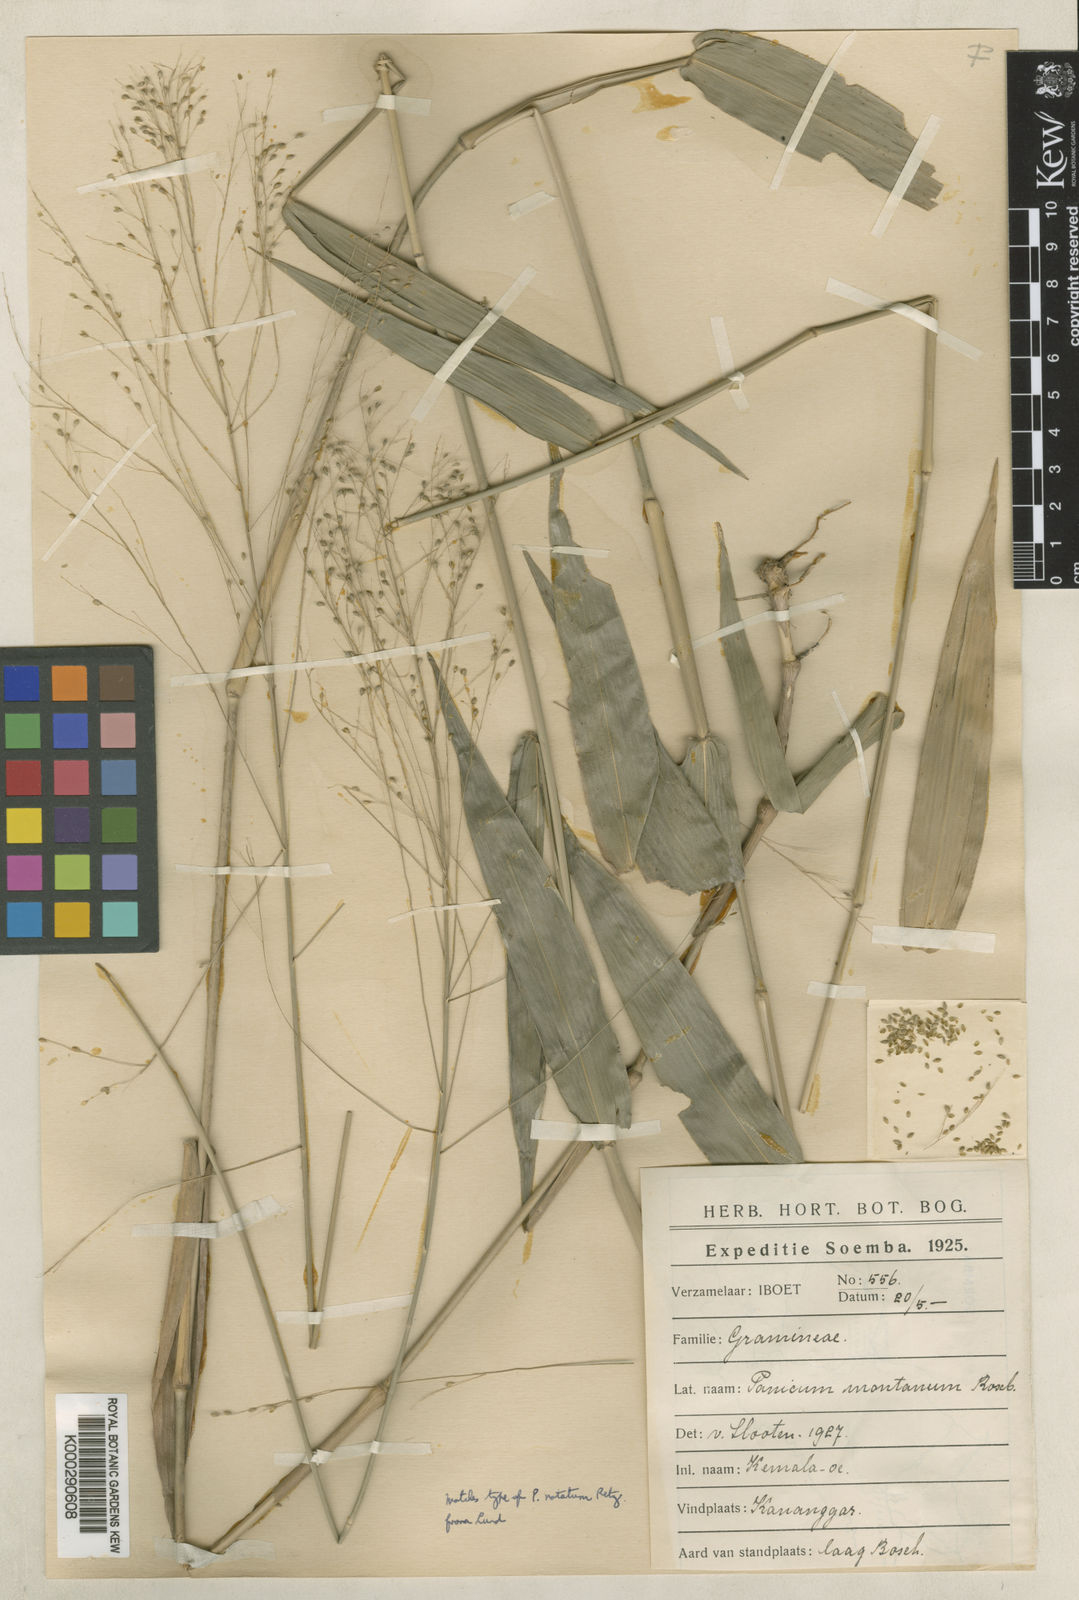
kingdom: Plantae
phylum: Tracheophyta
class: Liliopsida
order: Poales
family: Poaceae
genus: Panicum
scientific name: Panicum notatum
